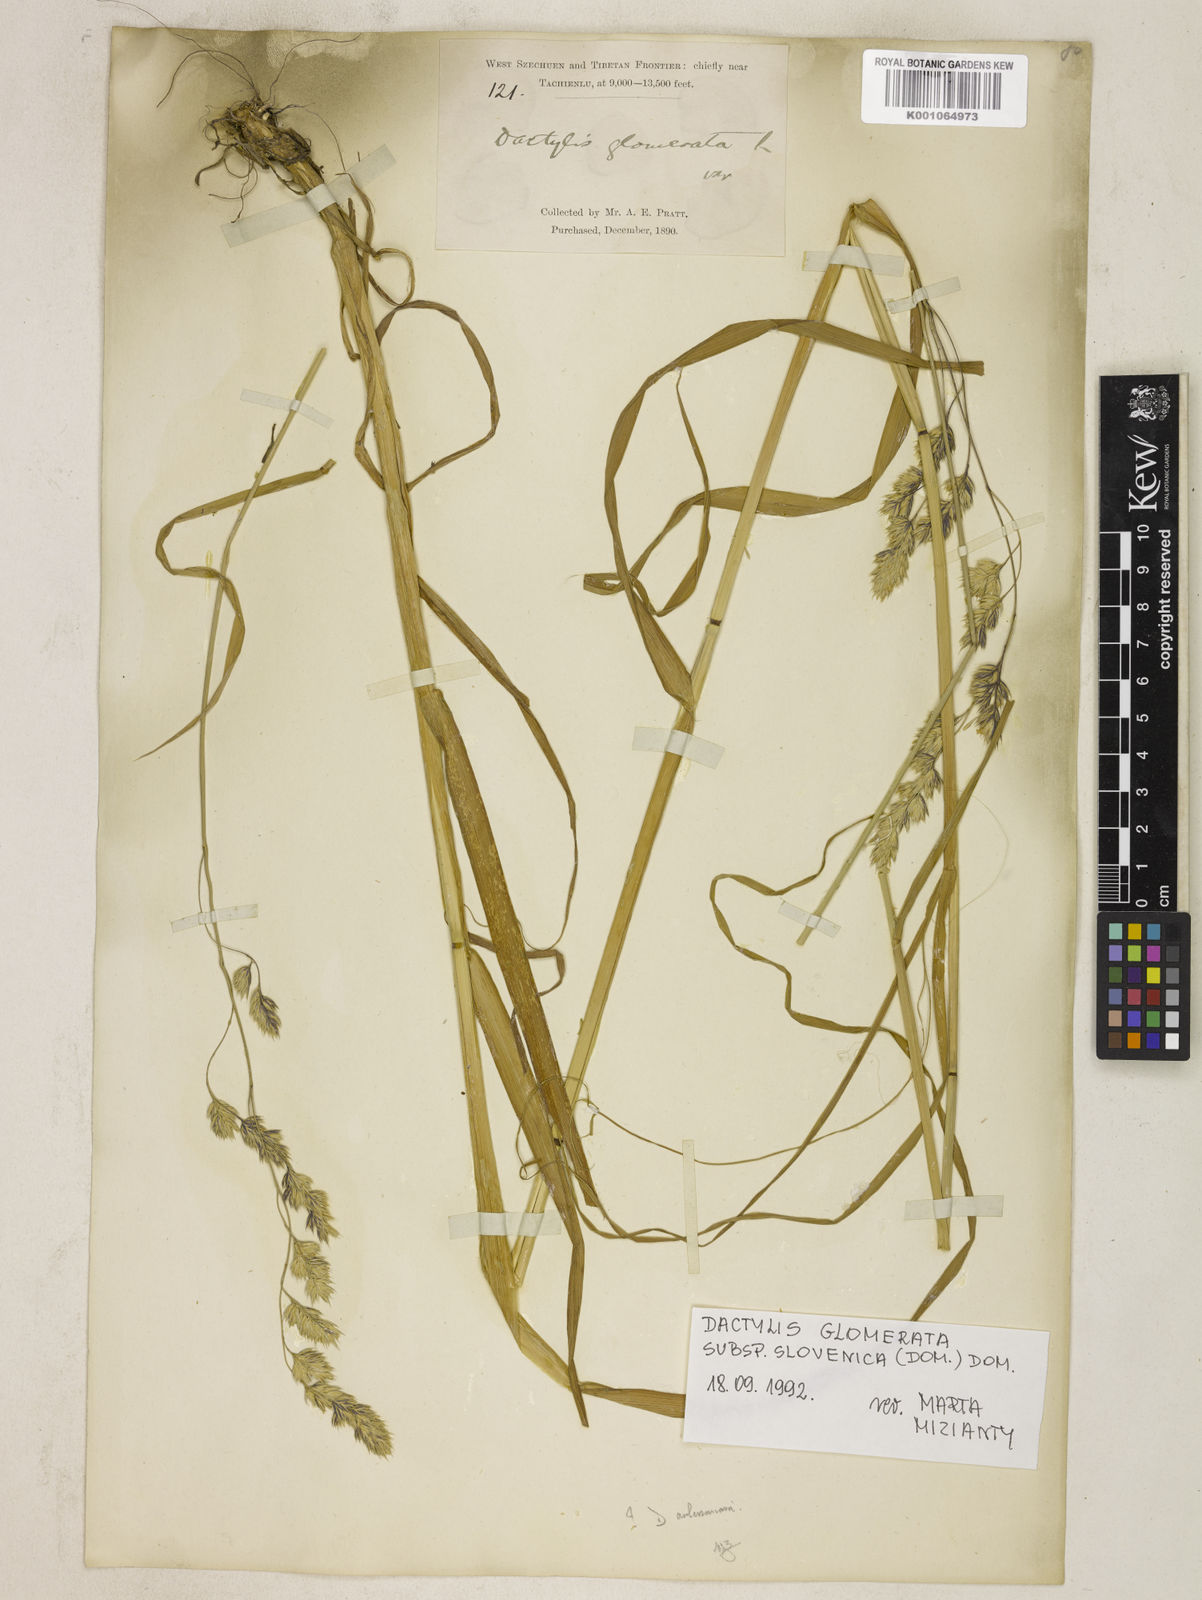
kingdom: Plantae
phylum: Tracheophyta
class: Liliopsida
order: Poales
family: Poaceae
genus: Dactylis
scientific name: Dactylis glomerata
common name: Orchardgrass
